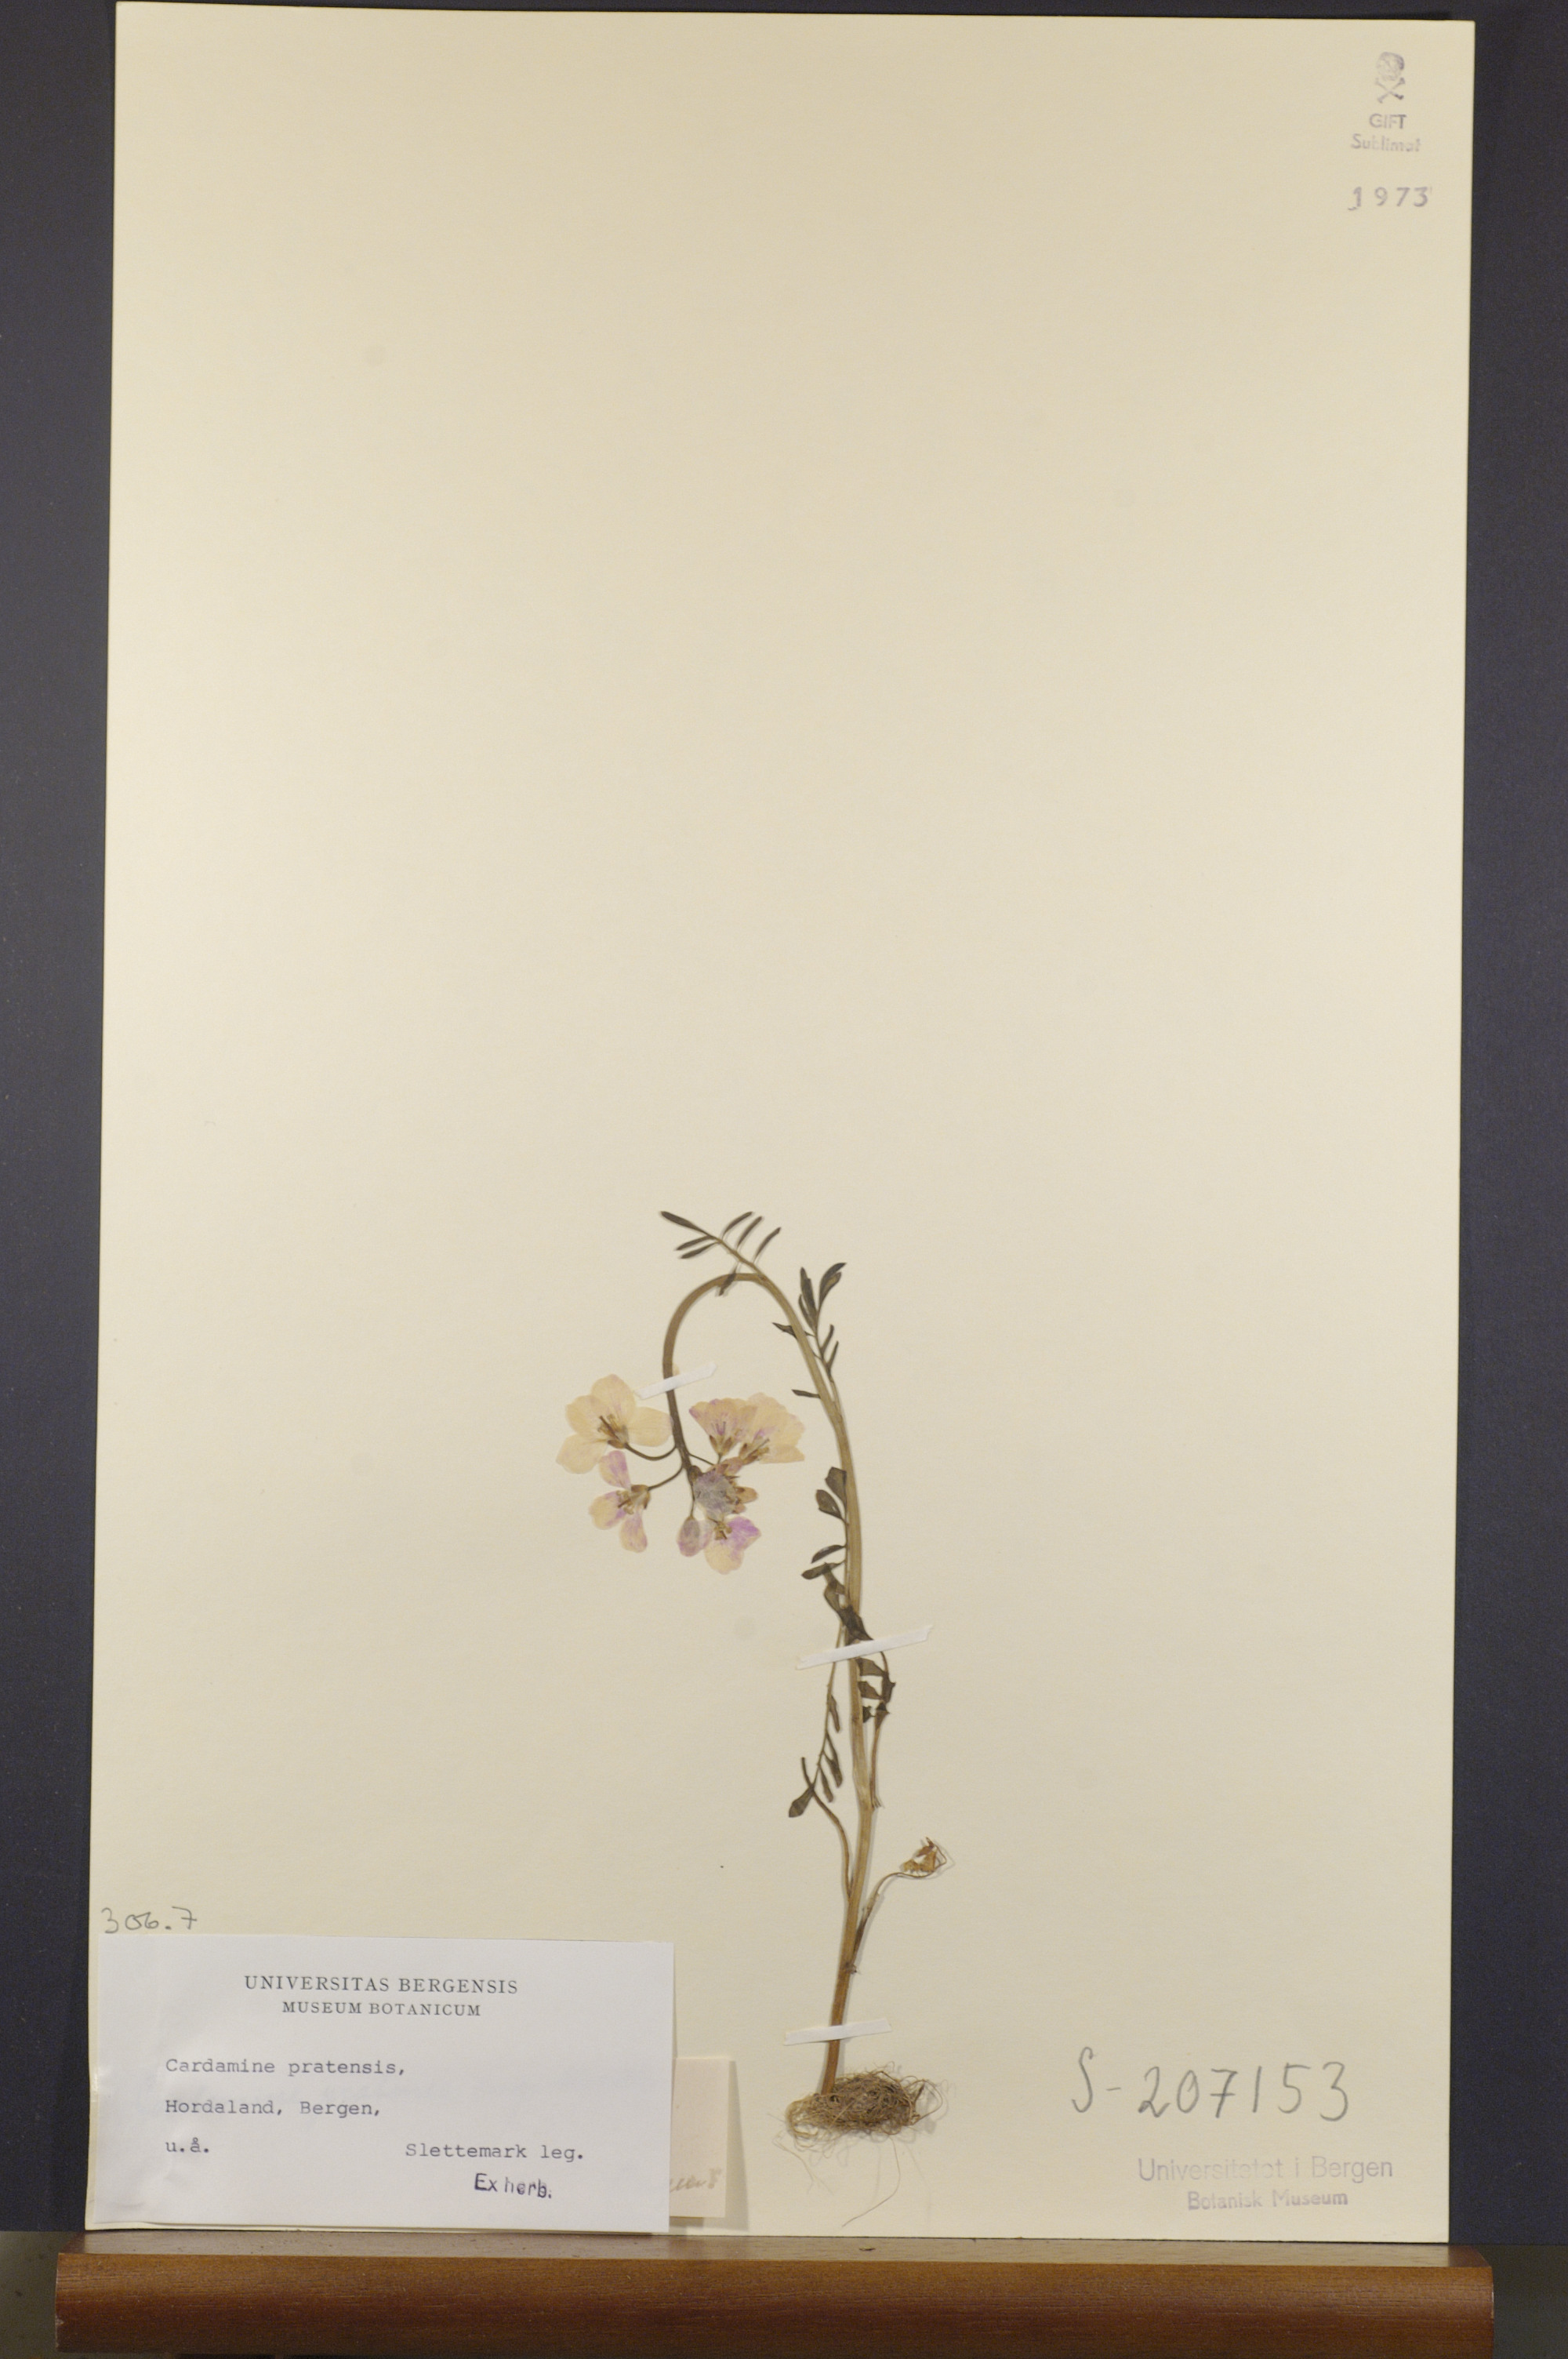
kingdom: Plantae
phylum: Tracheophyta
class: Magnoliopsida
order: Brassicales
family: Brassicaceae
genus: Cardamine
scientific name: Cardamine pratensis
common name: Cuckoo flower
